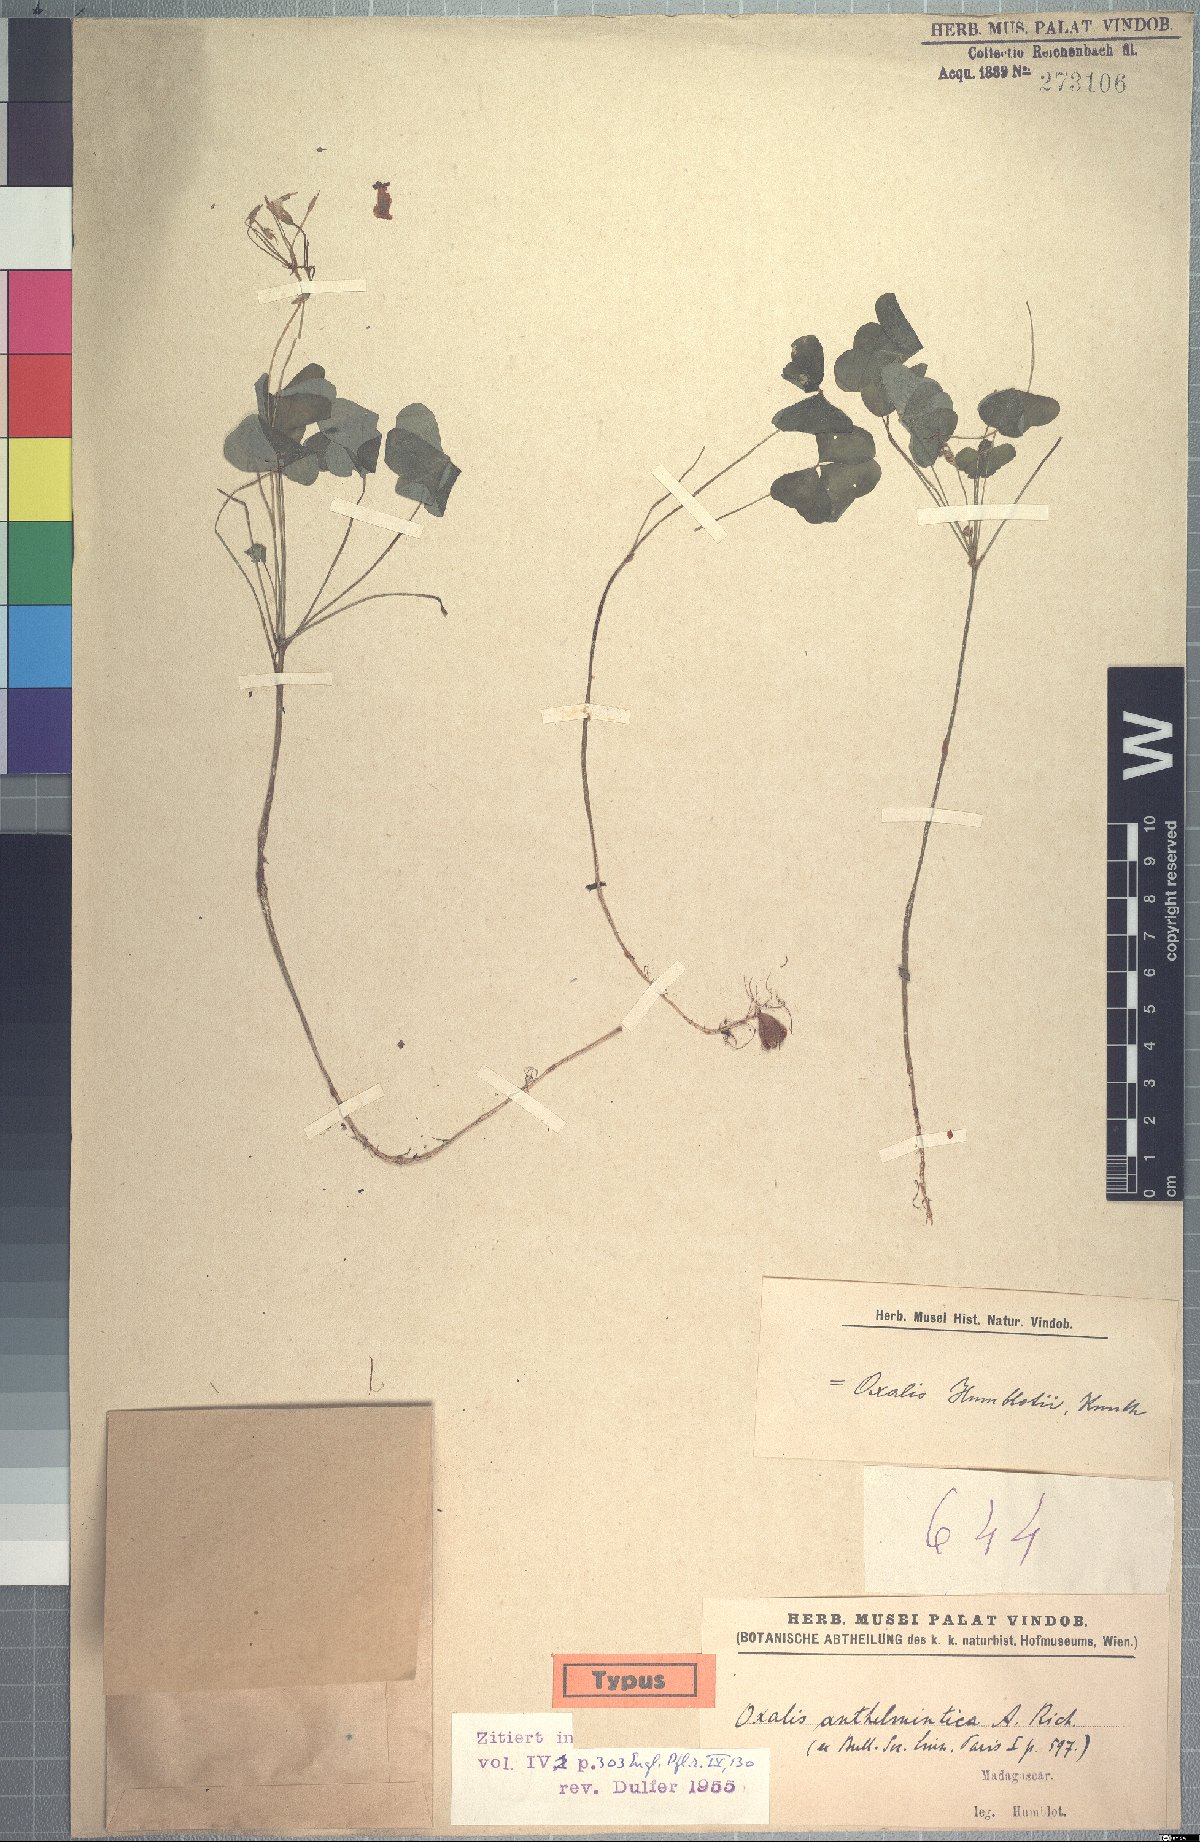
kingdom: Plantae
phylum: Tracheophyta
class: Magnoliopsida
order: Oxalidales
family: Oxalidaceae
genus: Oxalis
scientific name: Oxalis humblotii
